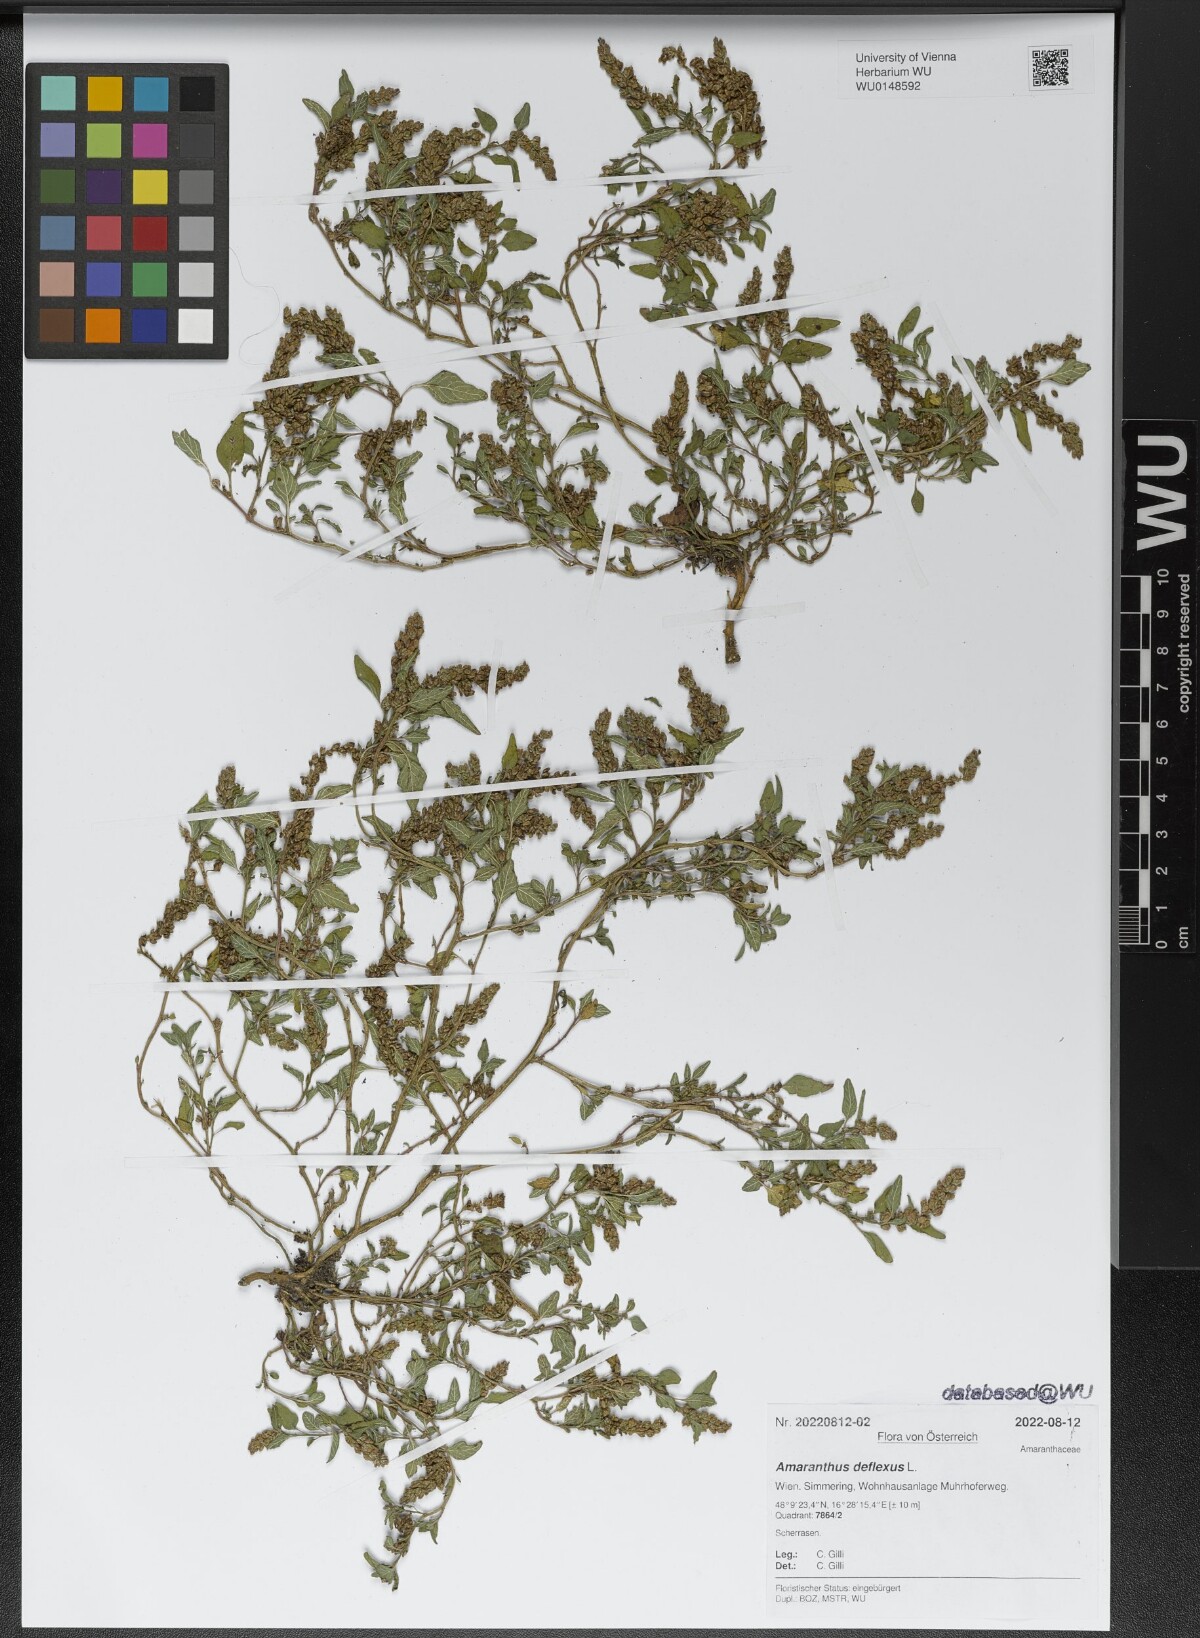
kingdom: Plantae
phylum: Tracheophyta
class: Magnoliopsida
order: Caryophyllales
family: Amaranthaceae
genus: Amaranthus
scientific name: Amaranthus deflexus
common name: Perennial pigweed
